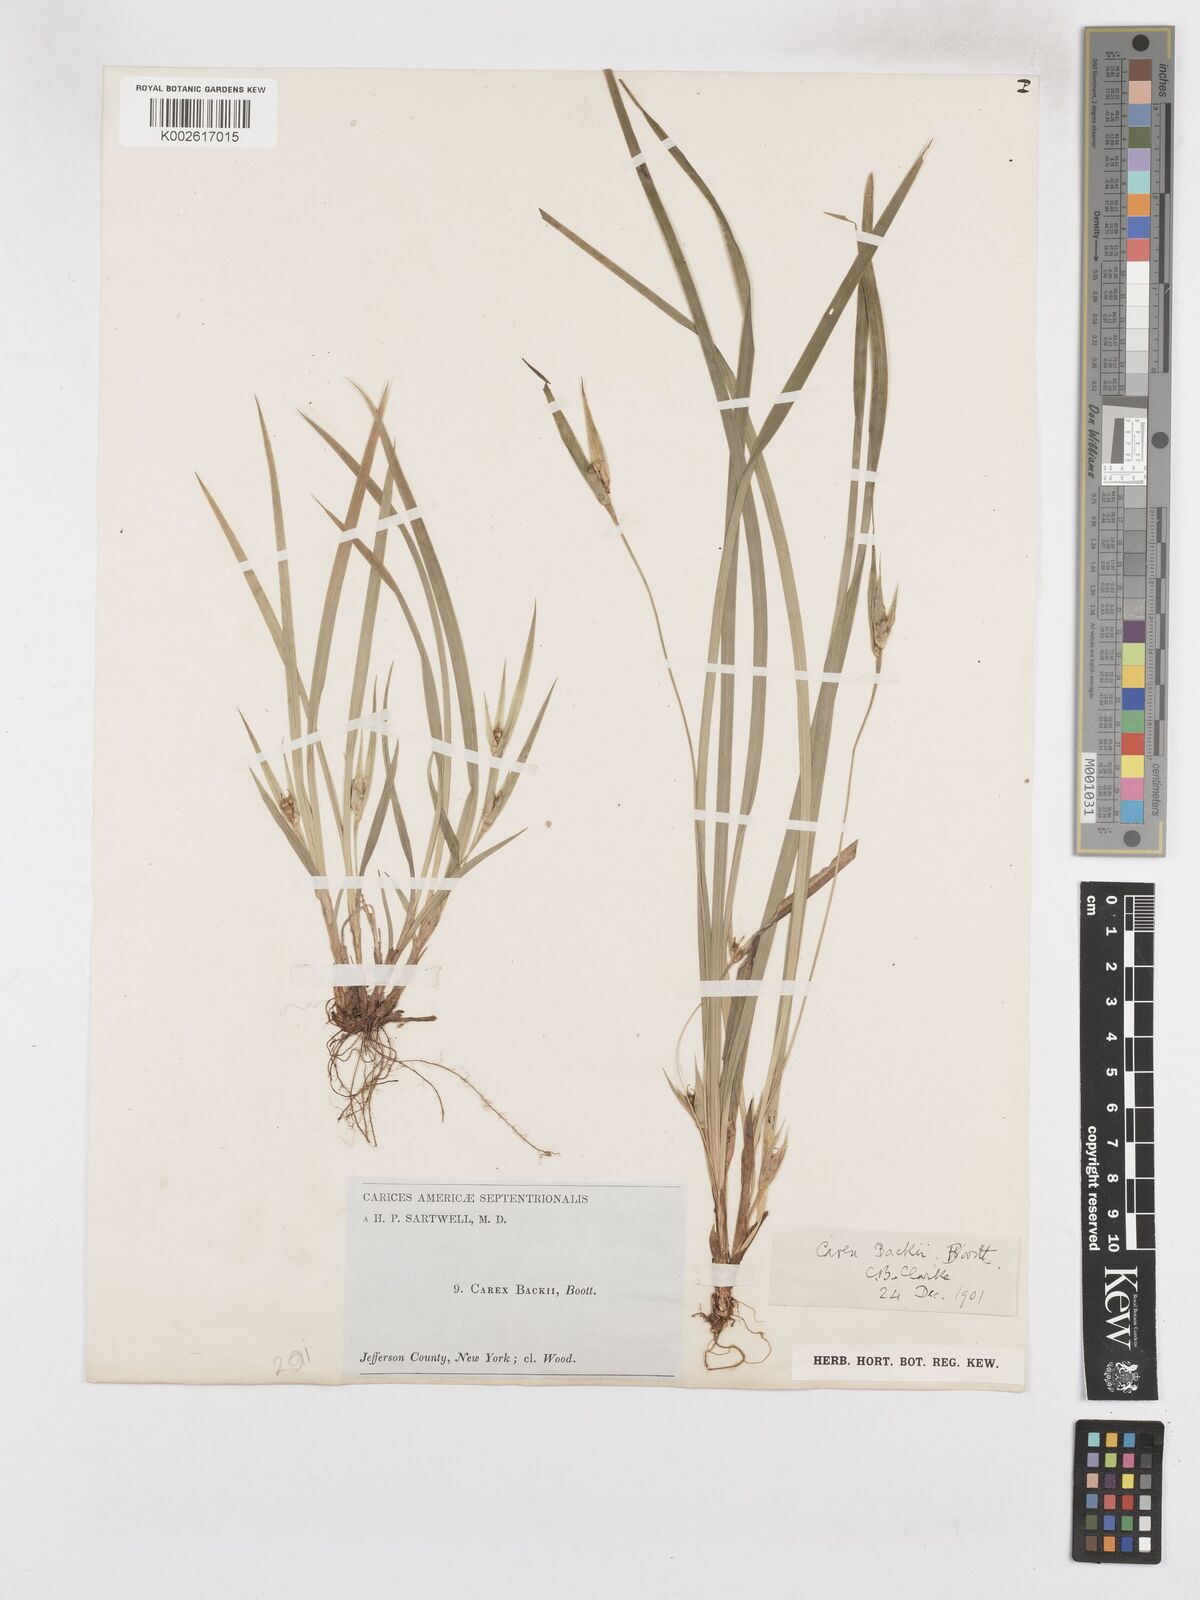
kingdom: Plantae
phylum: Tracheophyta
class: Liliopsida
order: Poales
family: Cyperaceae
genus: Carex
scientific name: Carex backii
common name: Back's sedge
